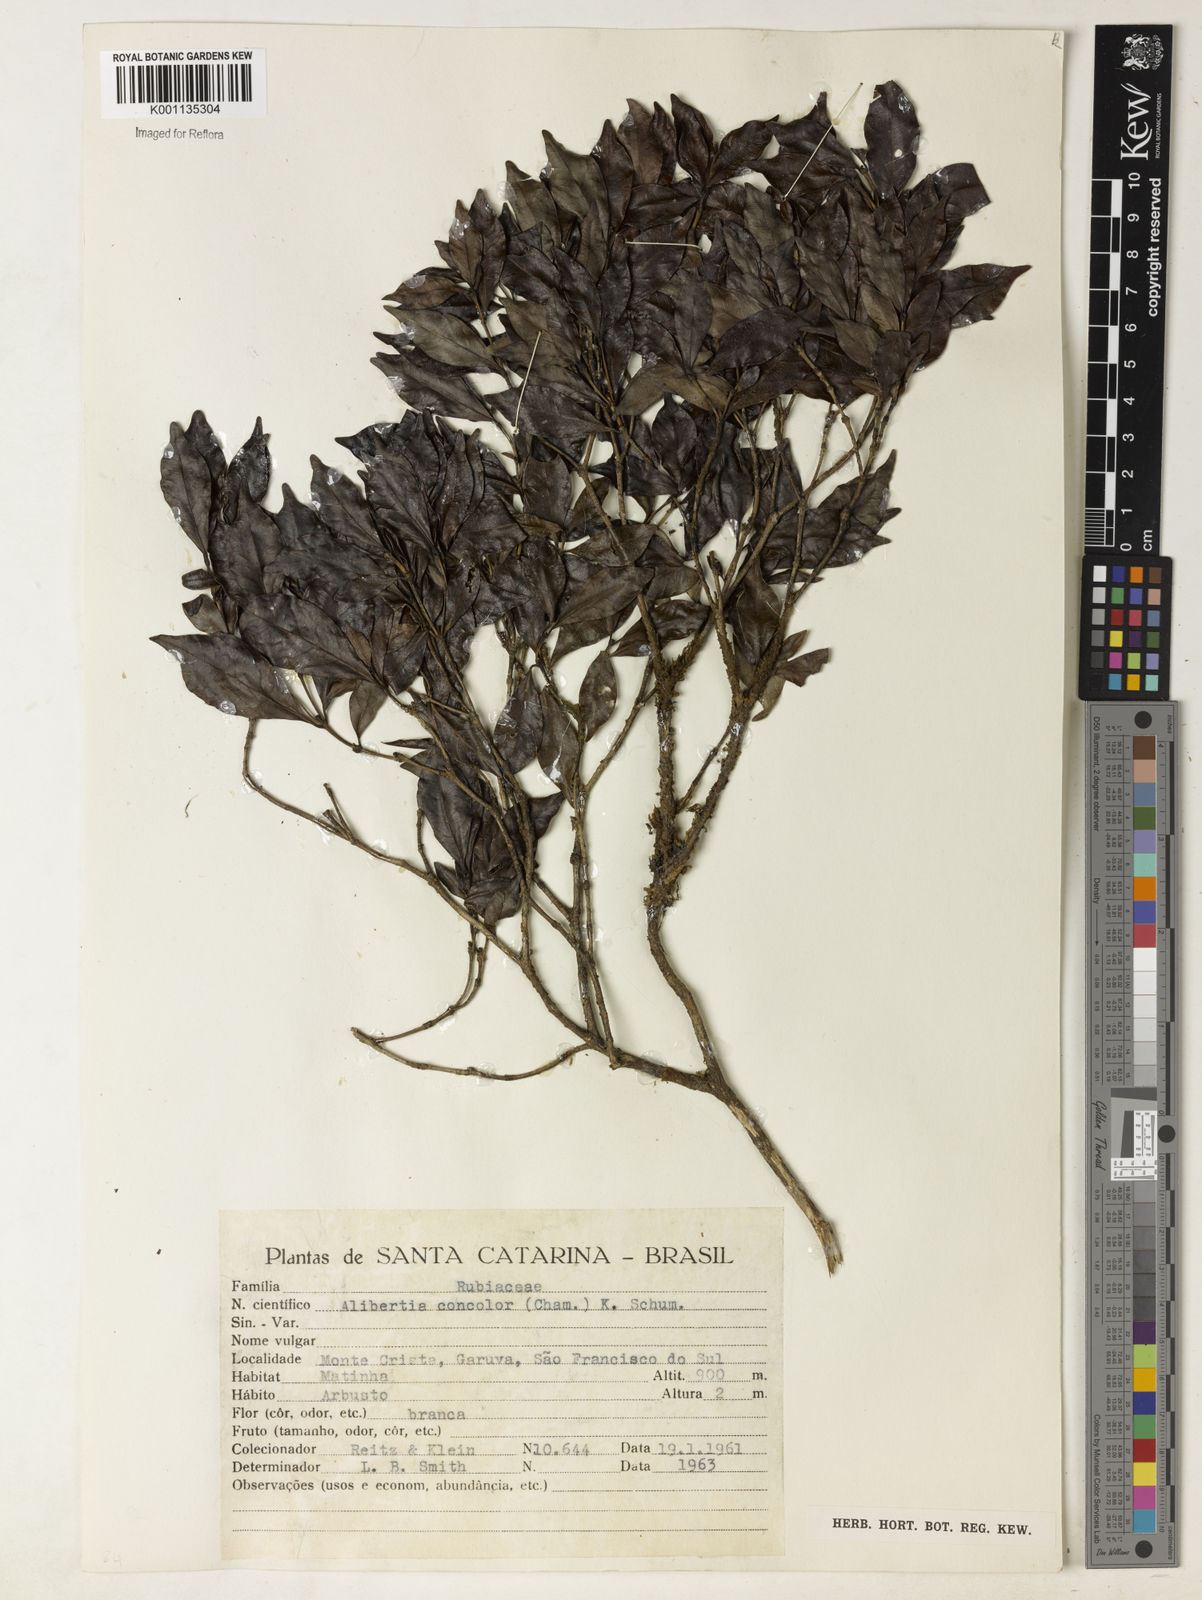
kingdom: Plantae
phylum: Tracheophyta
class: Magnoliopsida
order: Gentianales
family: Rubiaceae
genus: Cordiera
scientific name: Cordiera concolor
